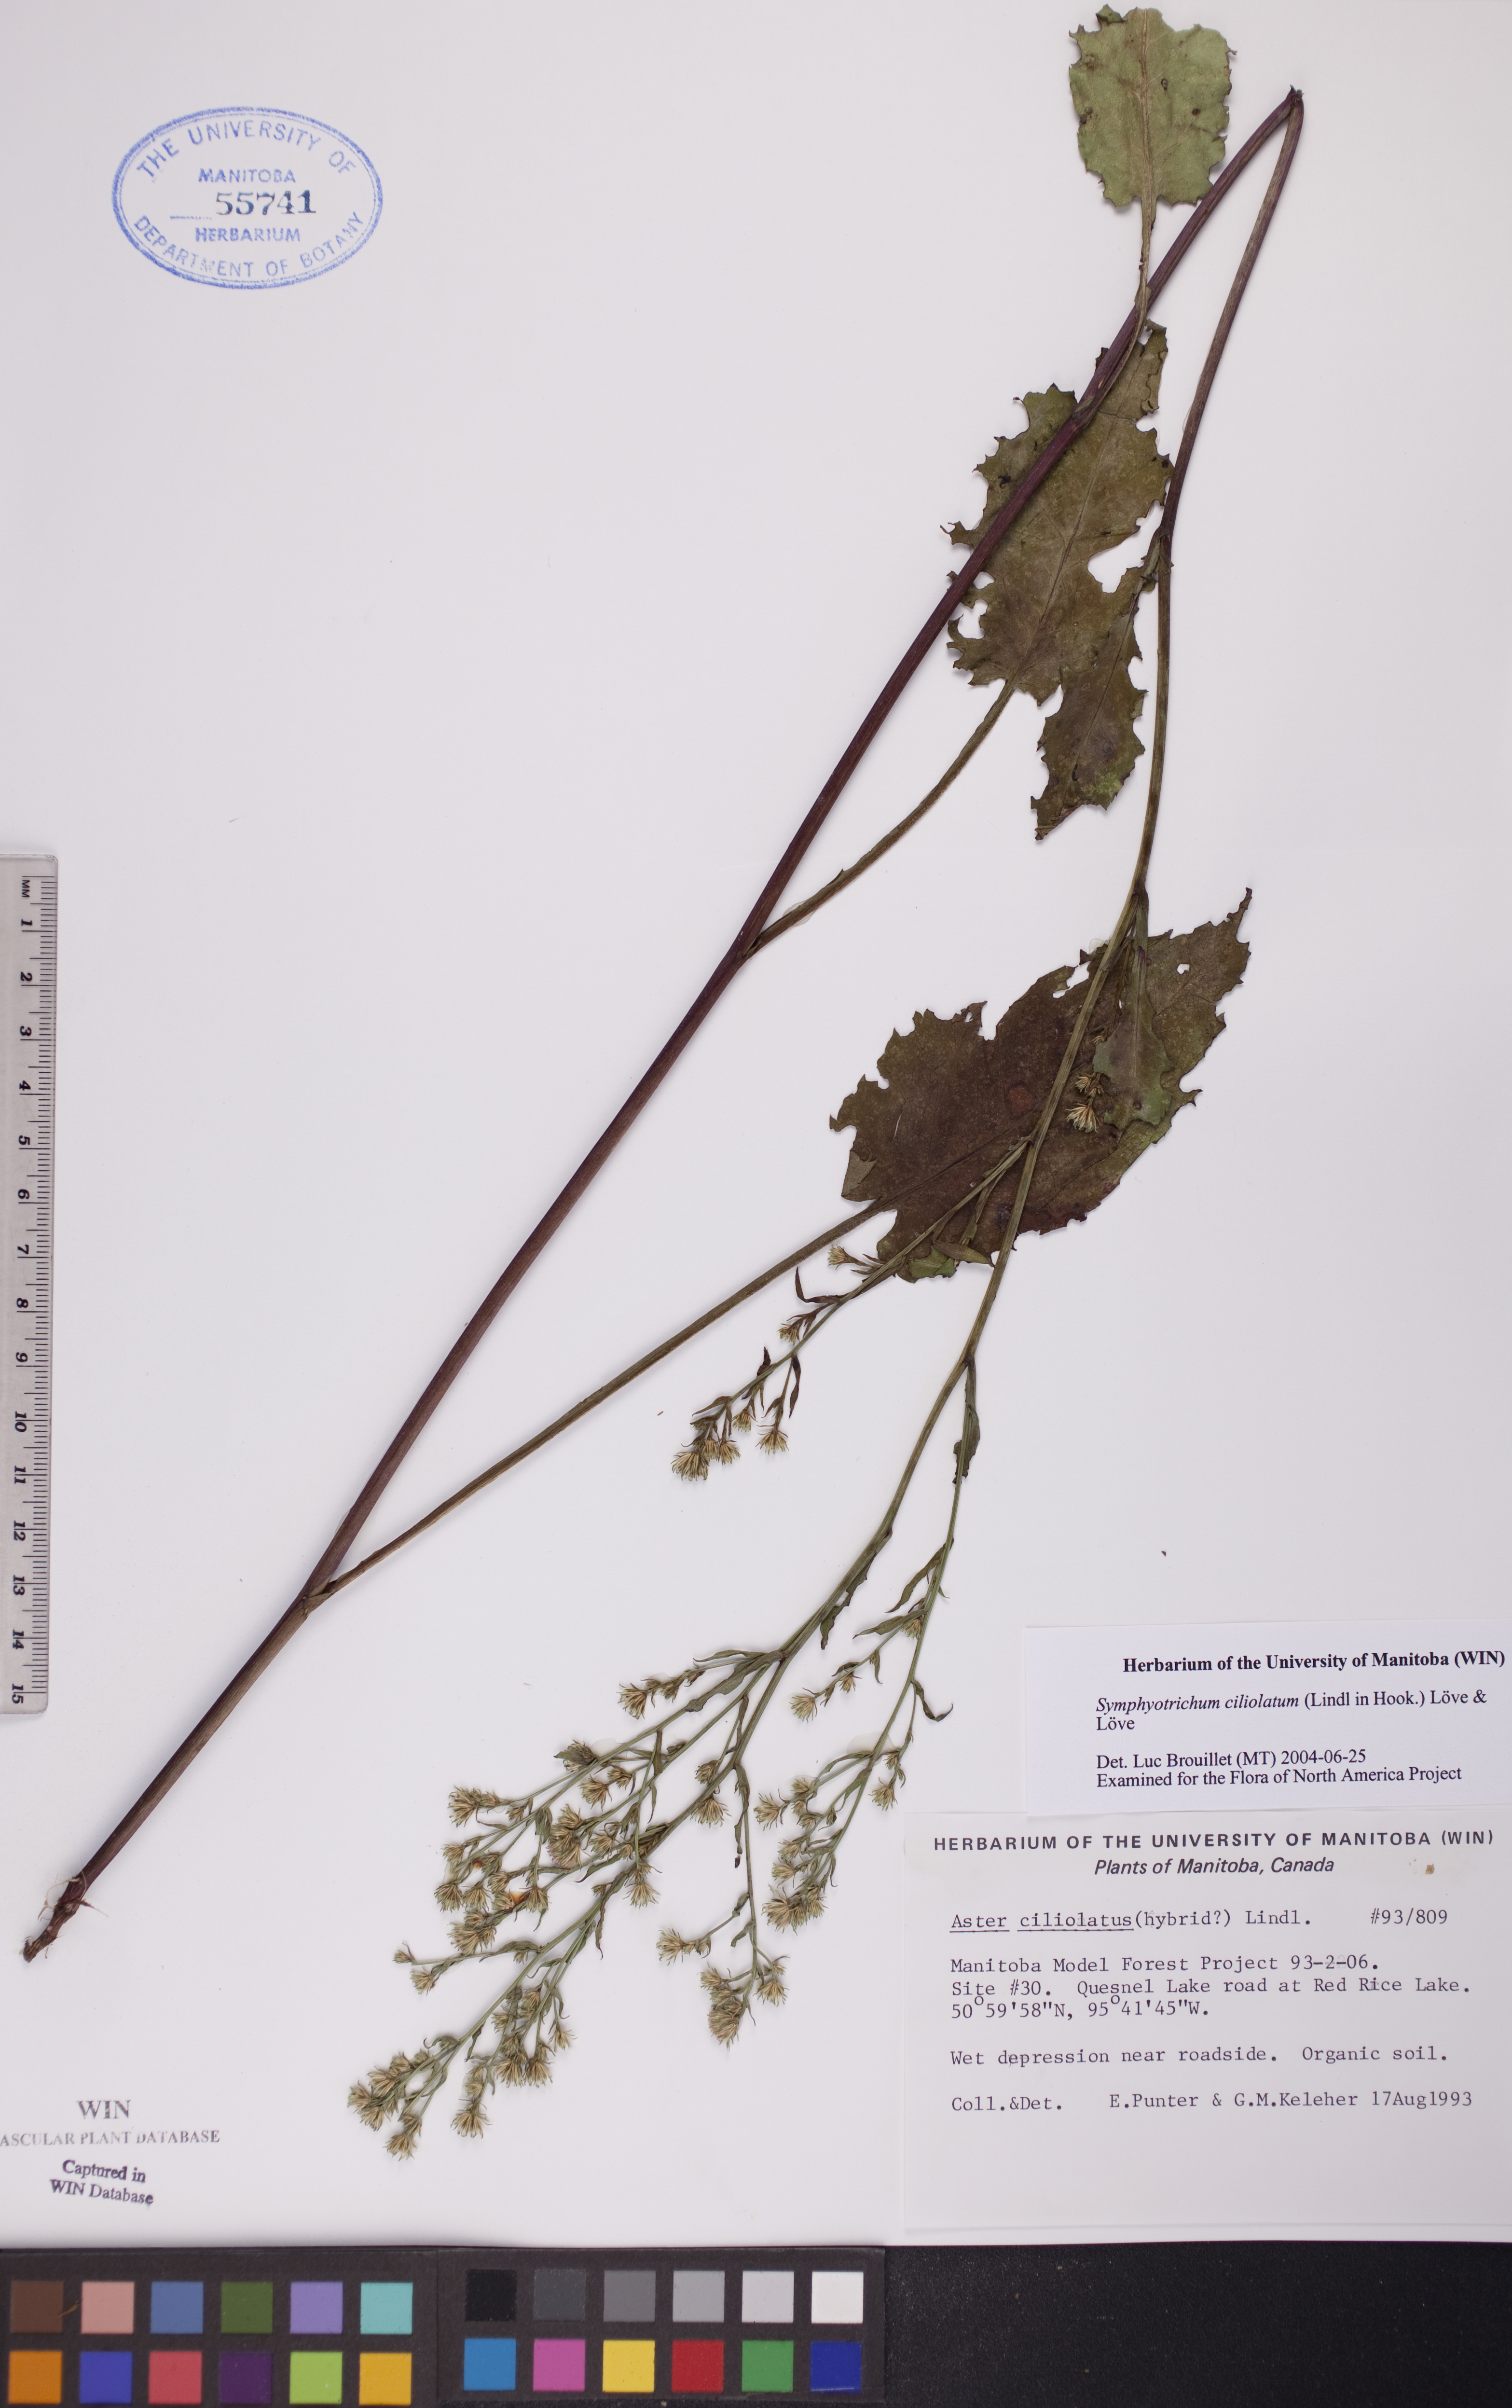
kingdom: Plantae
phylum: Tracheophyta
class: Magnoliopsida
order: Asterales
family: Asteraceae
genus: Symphyotrichum
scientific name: Symphyotrichum ciliolatum
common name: Fringed blue aster
